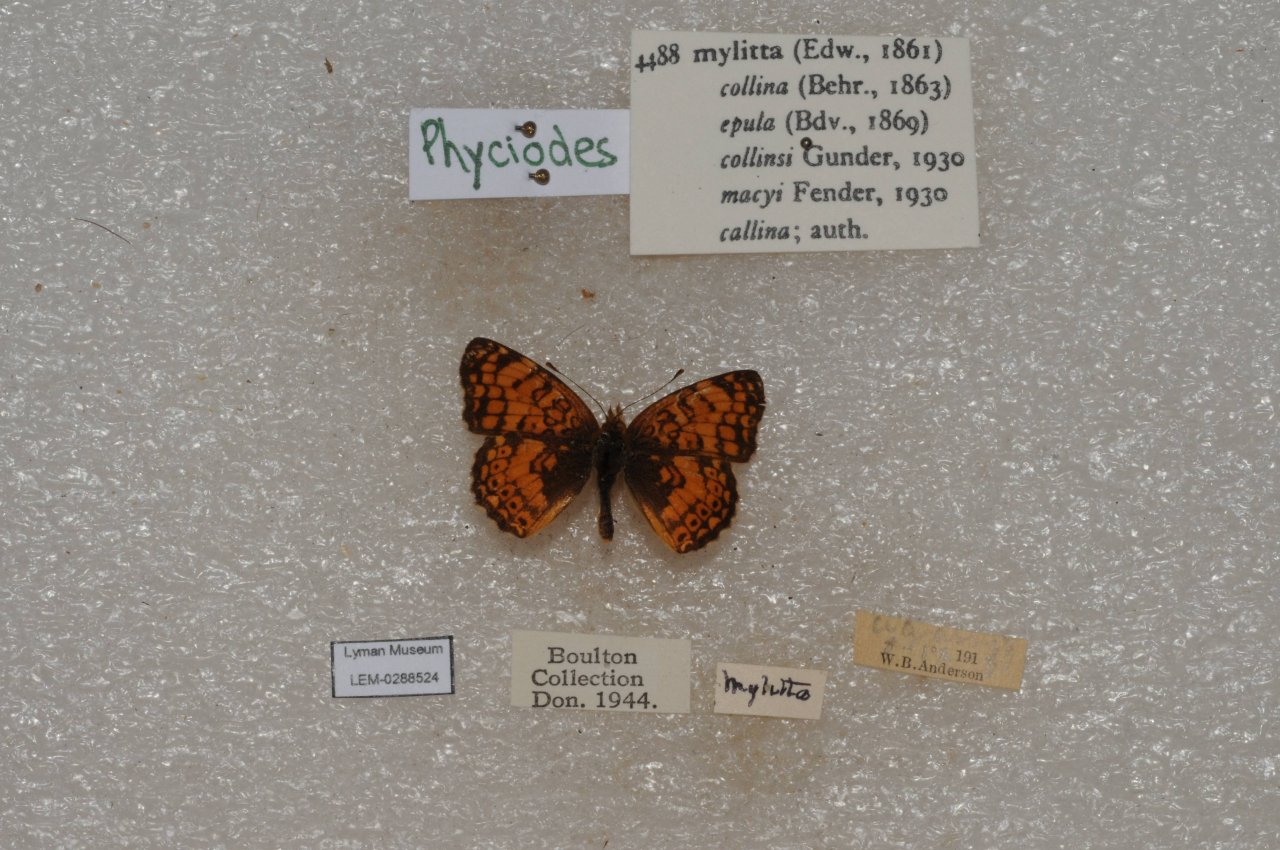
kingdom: Animalia
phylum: Arthropoda
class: Insecta
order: Lepidoptera
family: Nymphalidae
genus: Eresia
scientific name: Eresia aveyrona
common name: Mylitta Crescent
